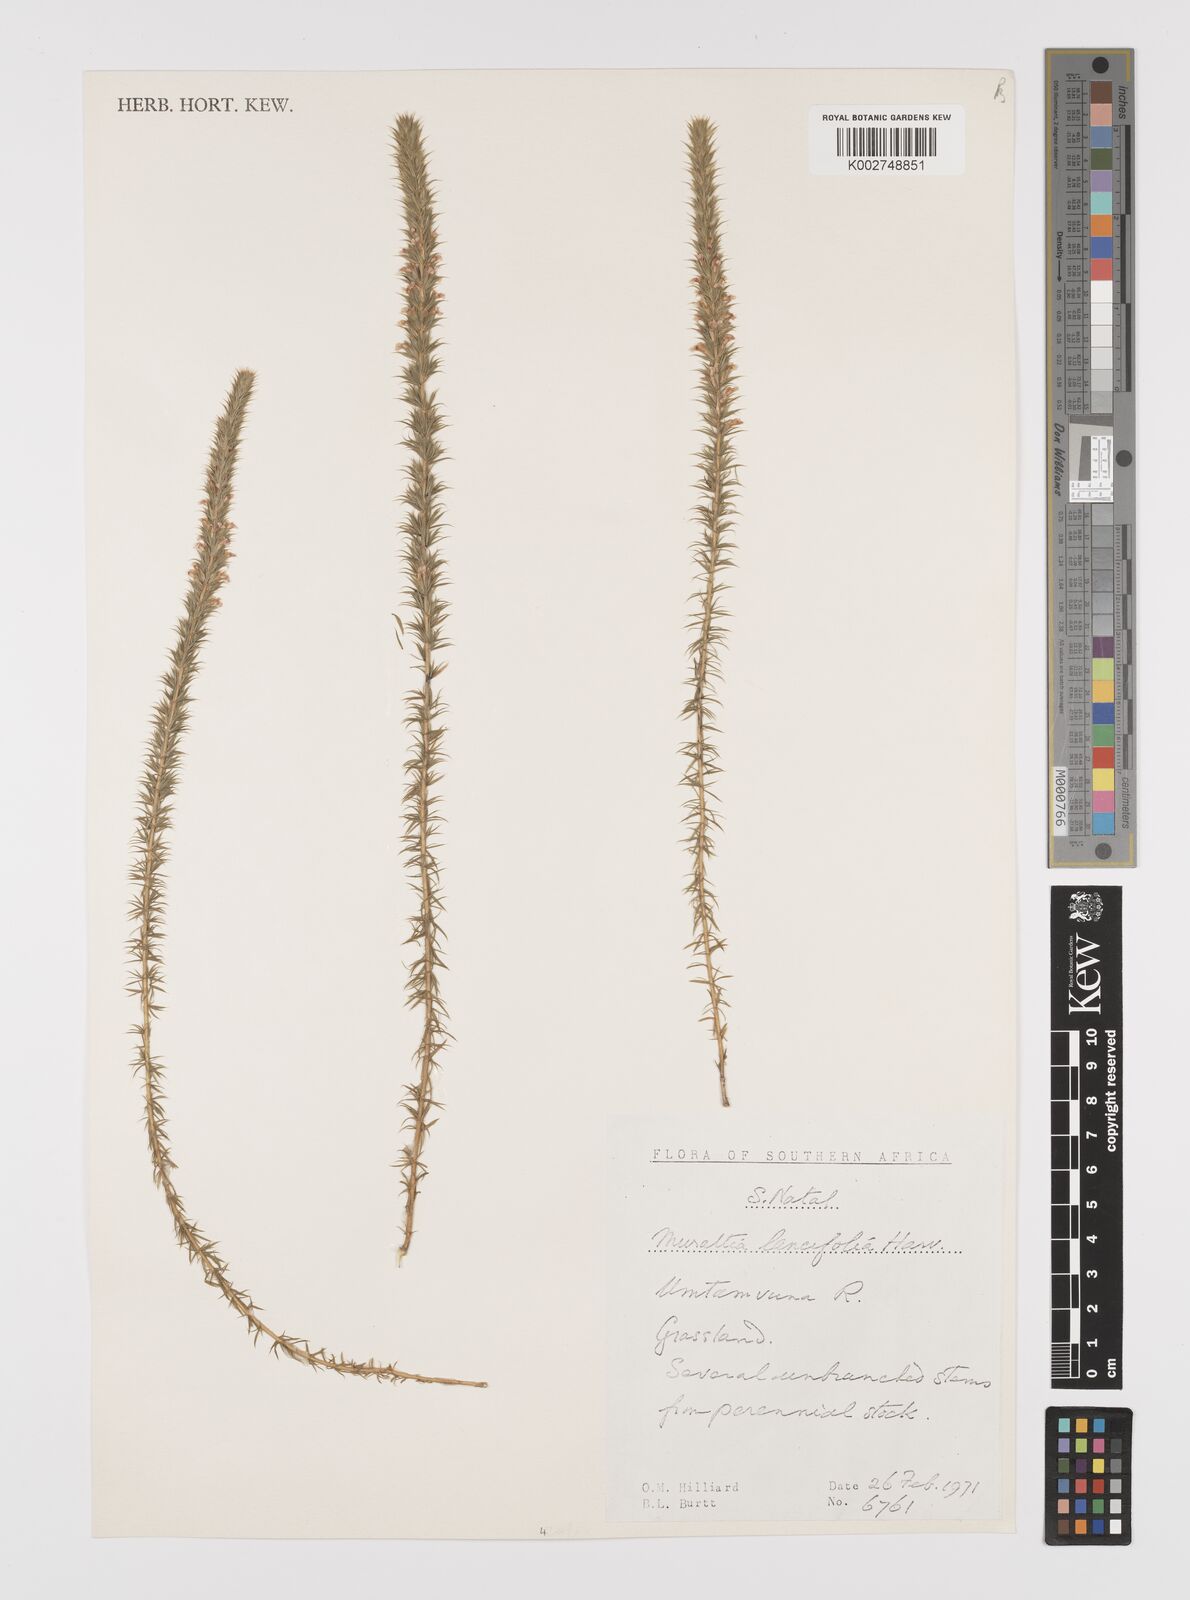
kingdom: Plantae
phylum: Tracheophyta
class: Magnoliopsida
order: Fabales
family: Polygalaceae
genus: Muraltia
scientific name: Muraltia lancifolia
